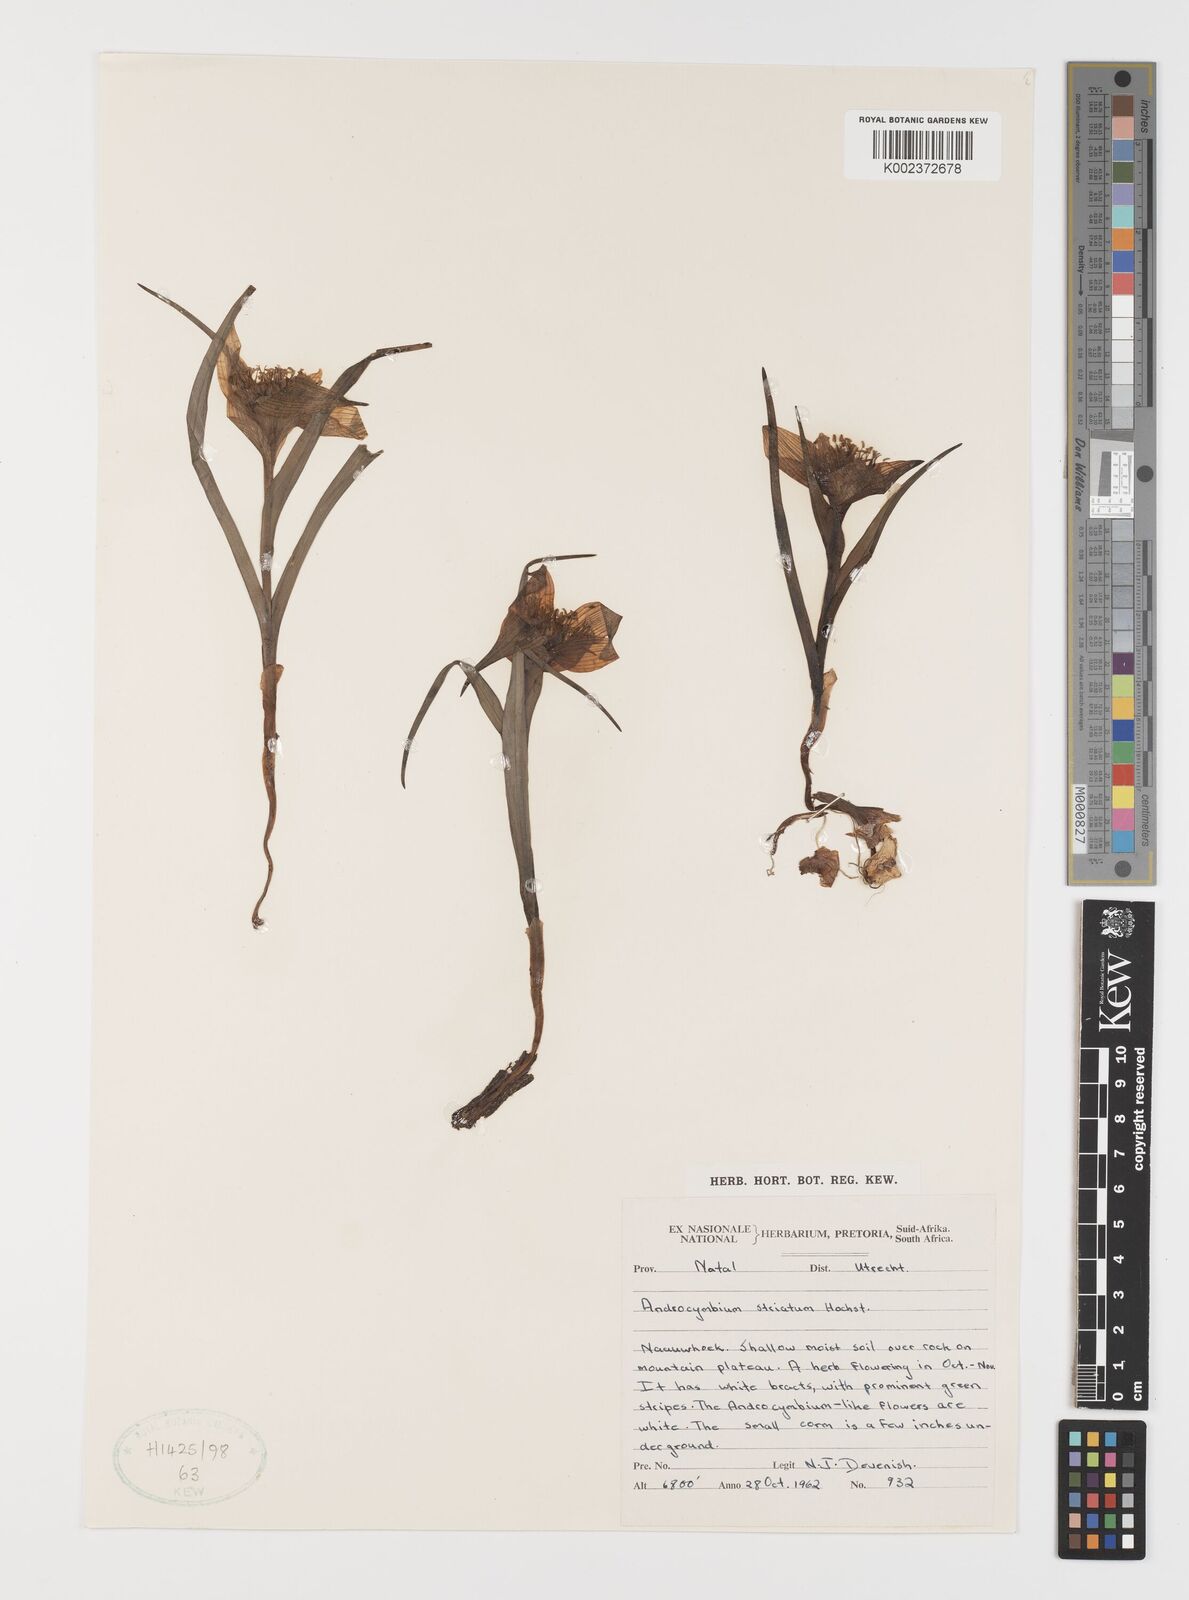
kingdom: Plantae
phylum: Tracheophyta
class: Liliopsida
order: Liliales
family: Colchicaceae
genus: Colchicum
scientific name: Colchicum striatum
